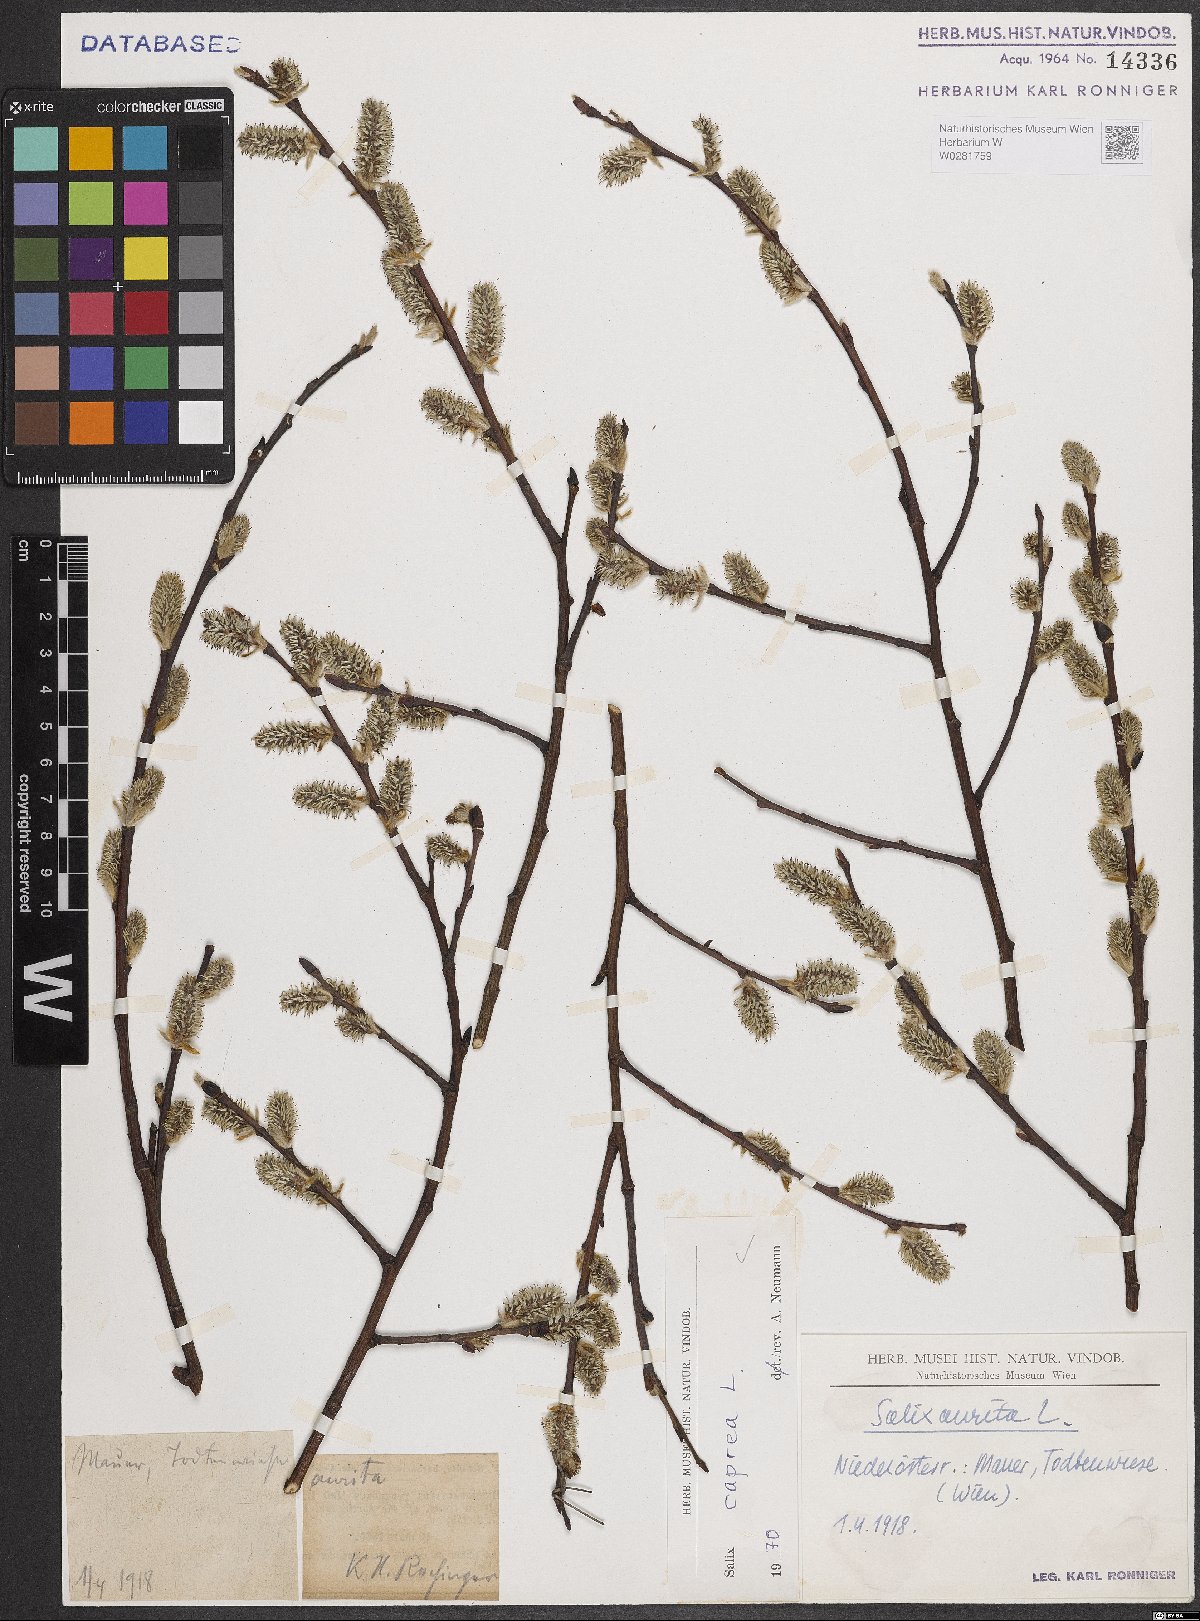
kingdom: Plantae
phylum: Tracheophyta
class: Magnoliopsida
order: Malpighiales
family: Salicaceae
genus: Salix
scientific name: Salix caprea
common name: Goat willow
